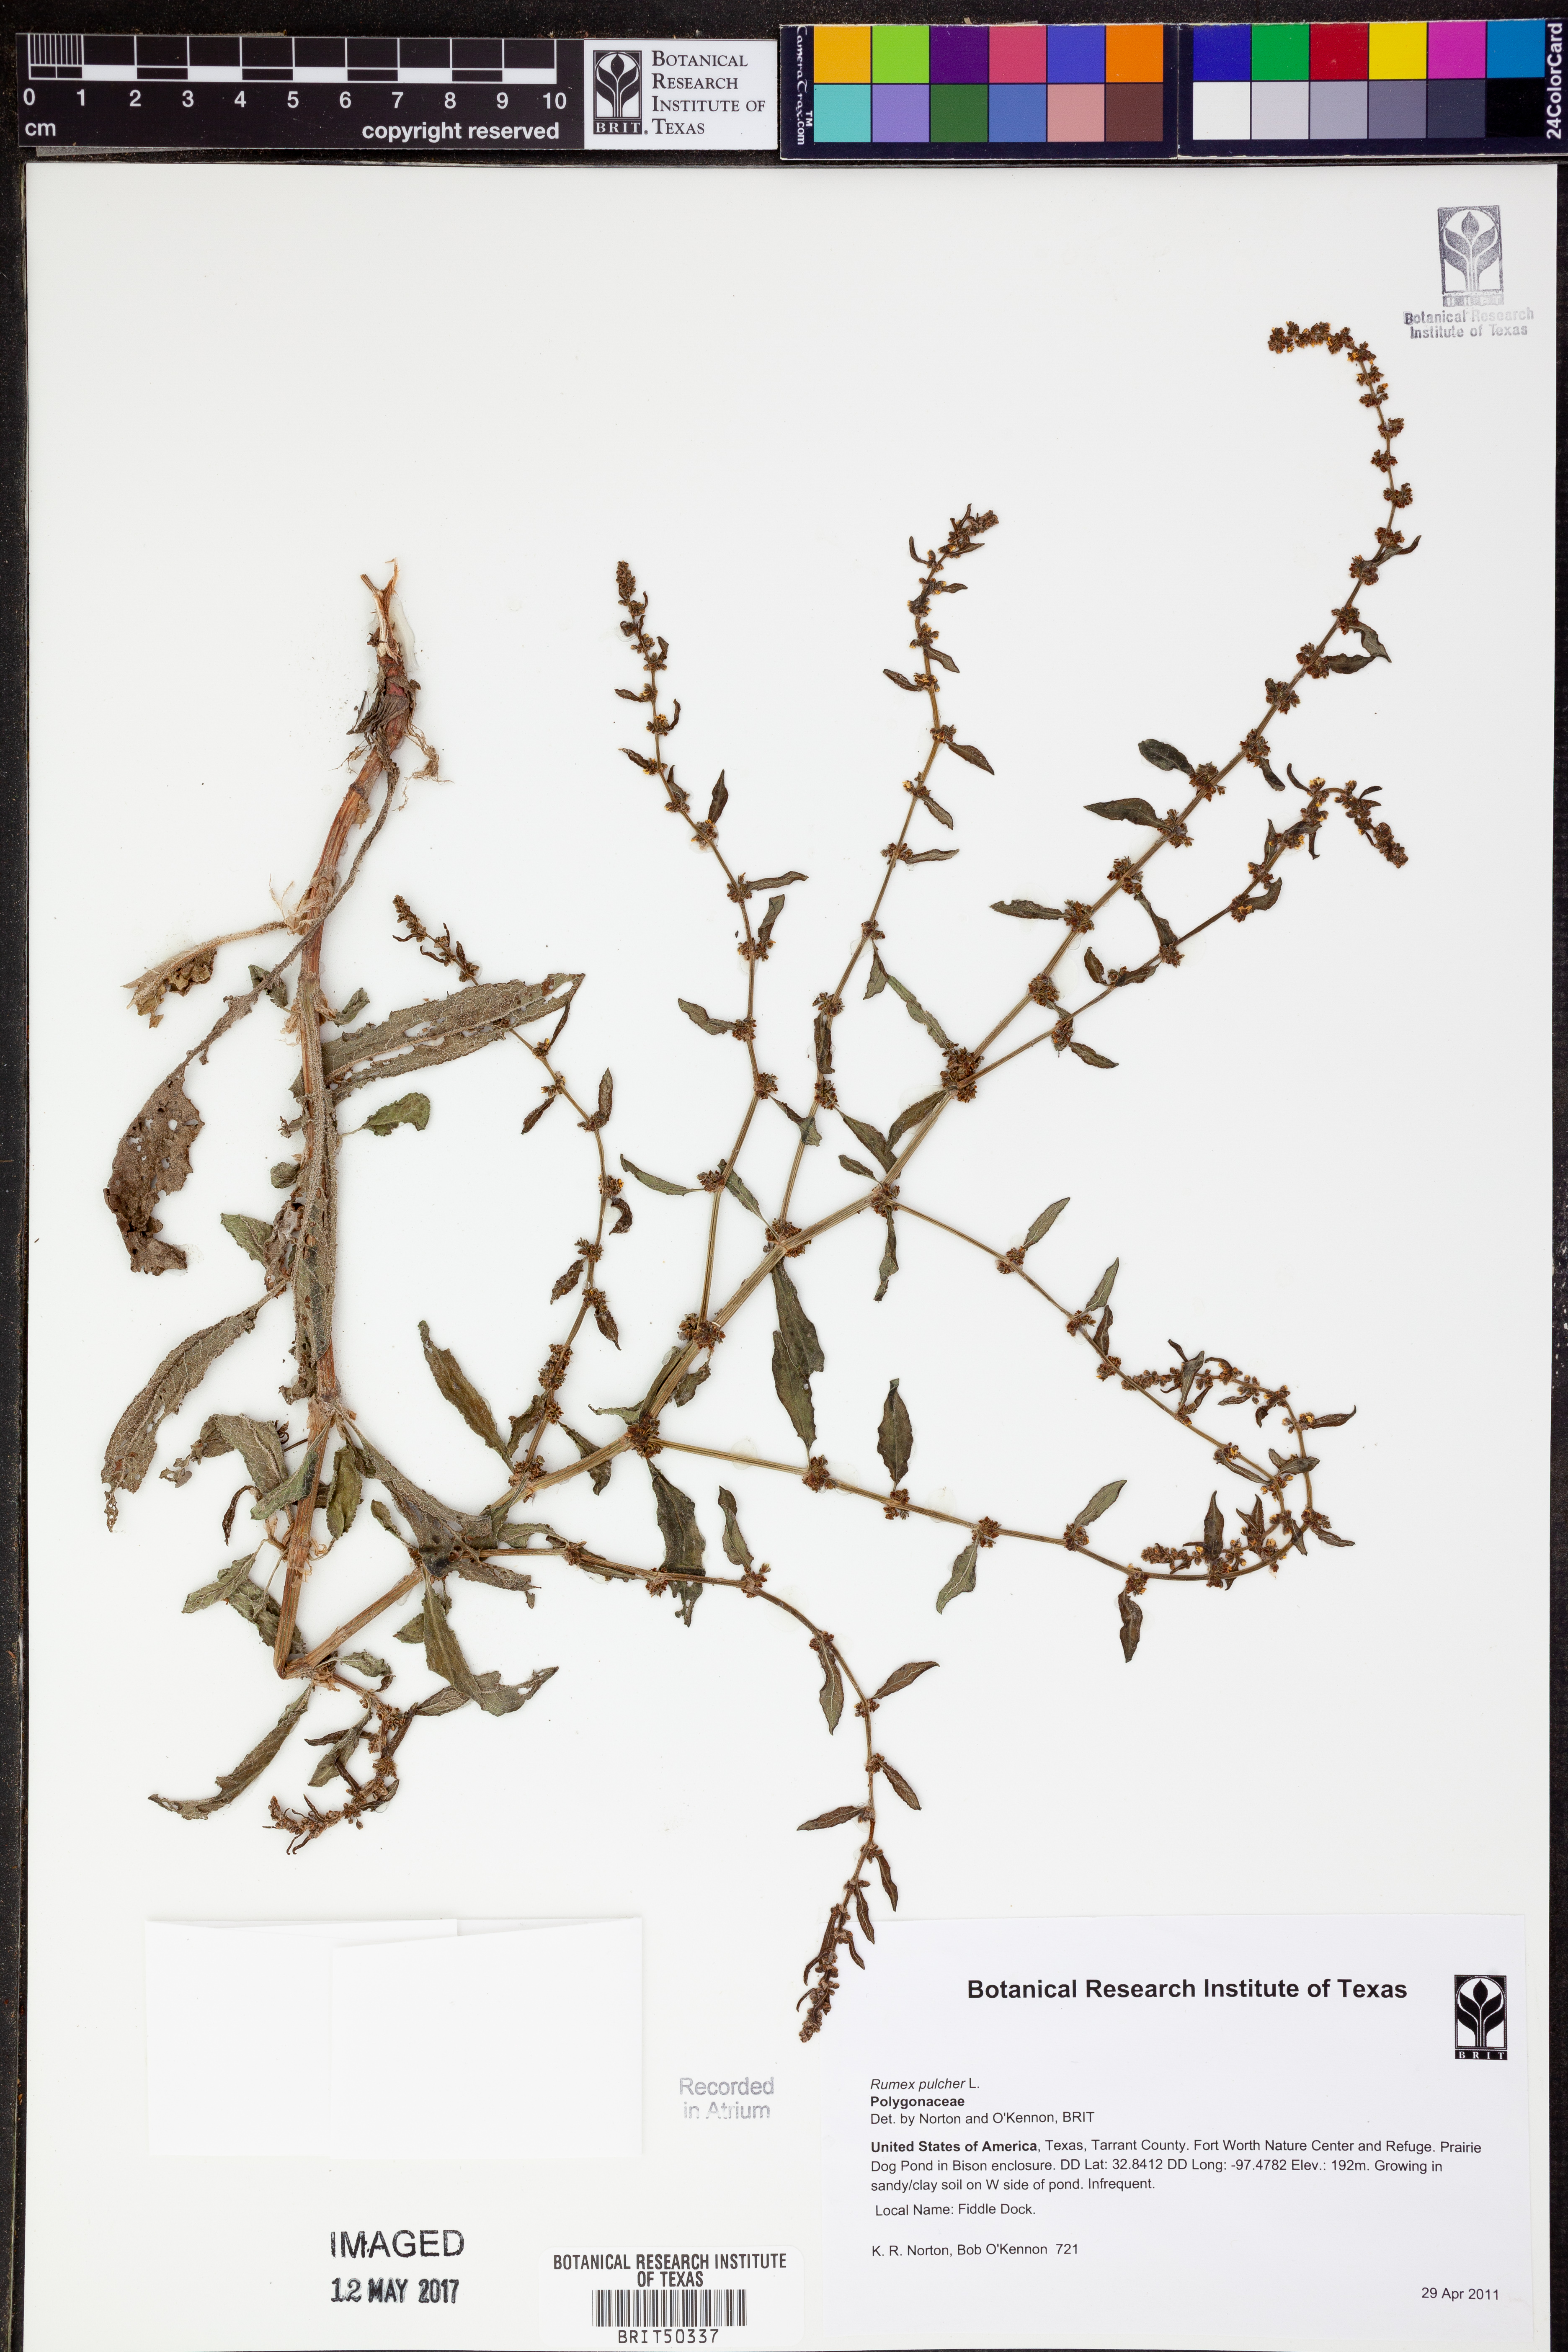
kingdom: Plantae
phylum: Tracheophyta
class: Magnoliopsida
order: Caryophyllales
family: Polygonaceae
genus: Rumex
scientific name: Rumex pulcher
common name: Fiddle dock
